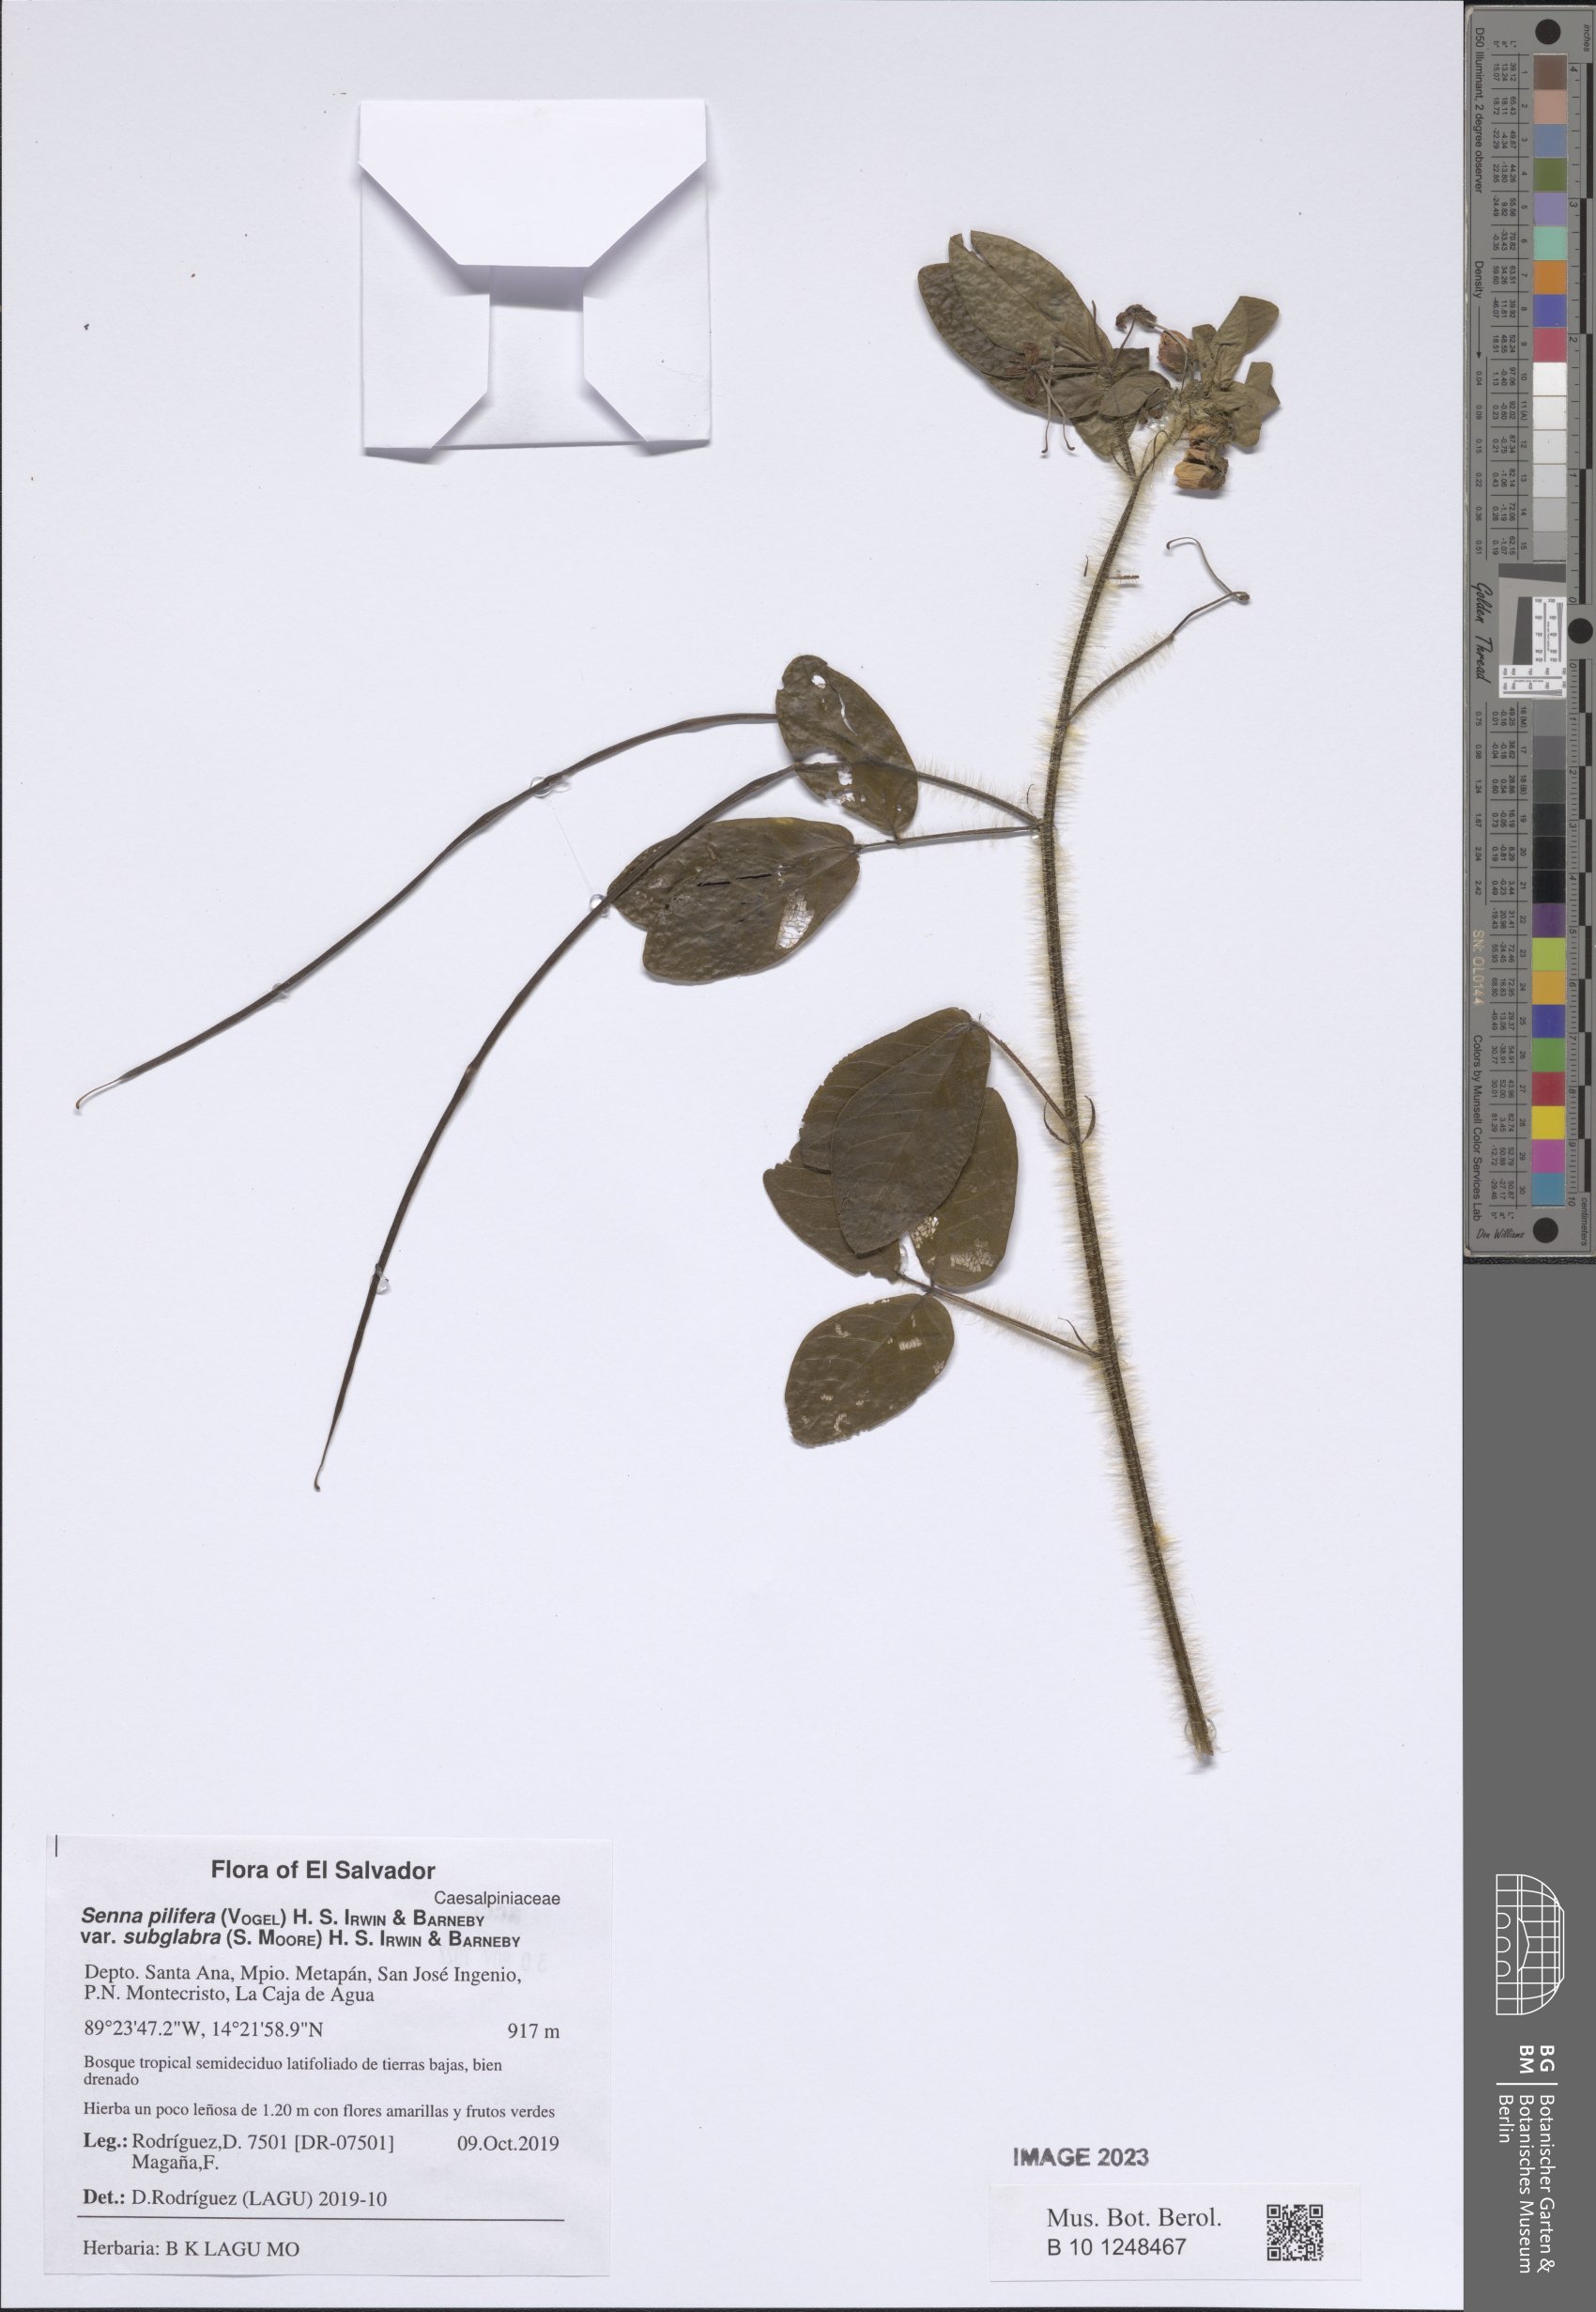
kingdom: Plantae
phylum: Tracheophyta
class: Magnoliopsida
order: Fabales
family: Fabaceae
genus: Senna
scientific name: Senna pilifera
